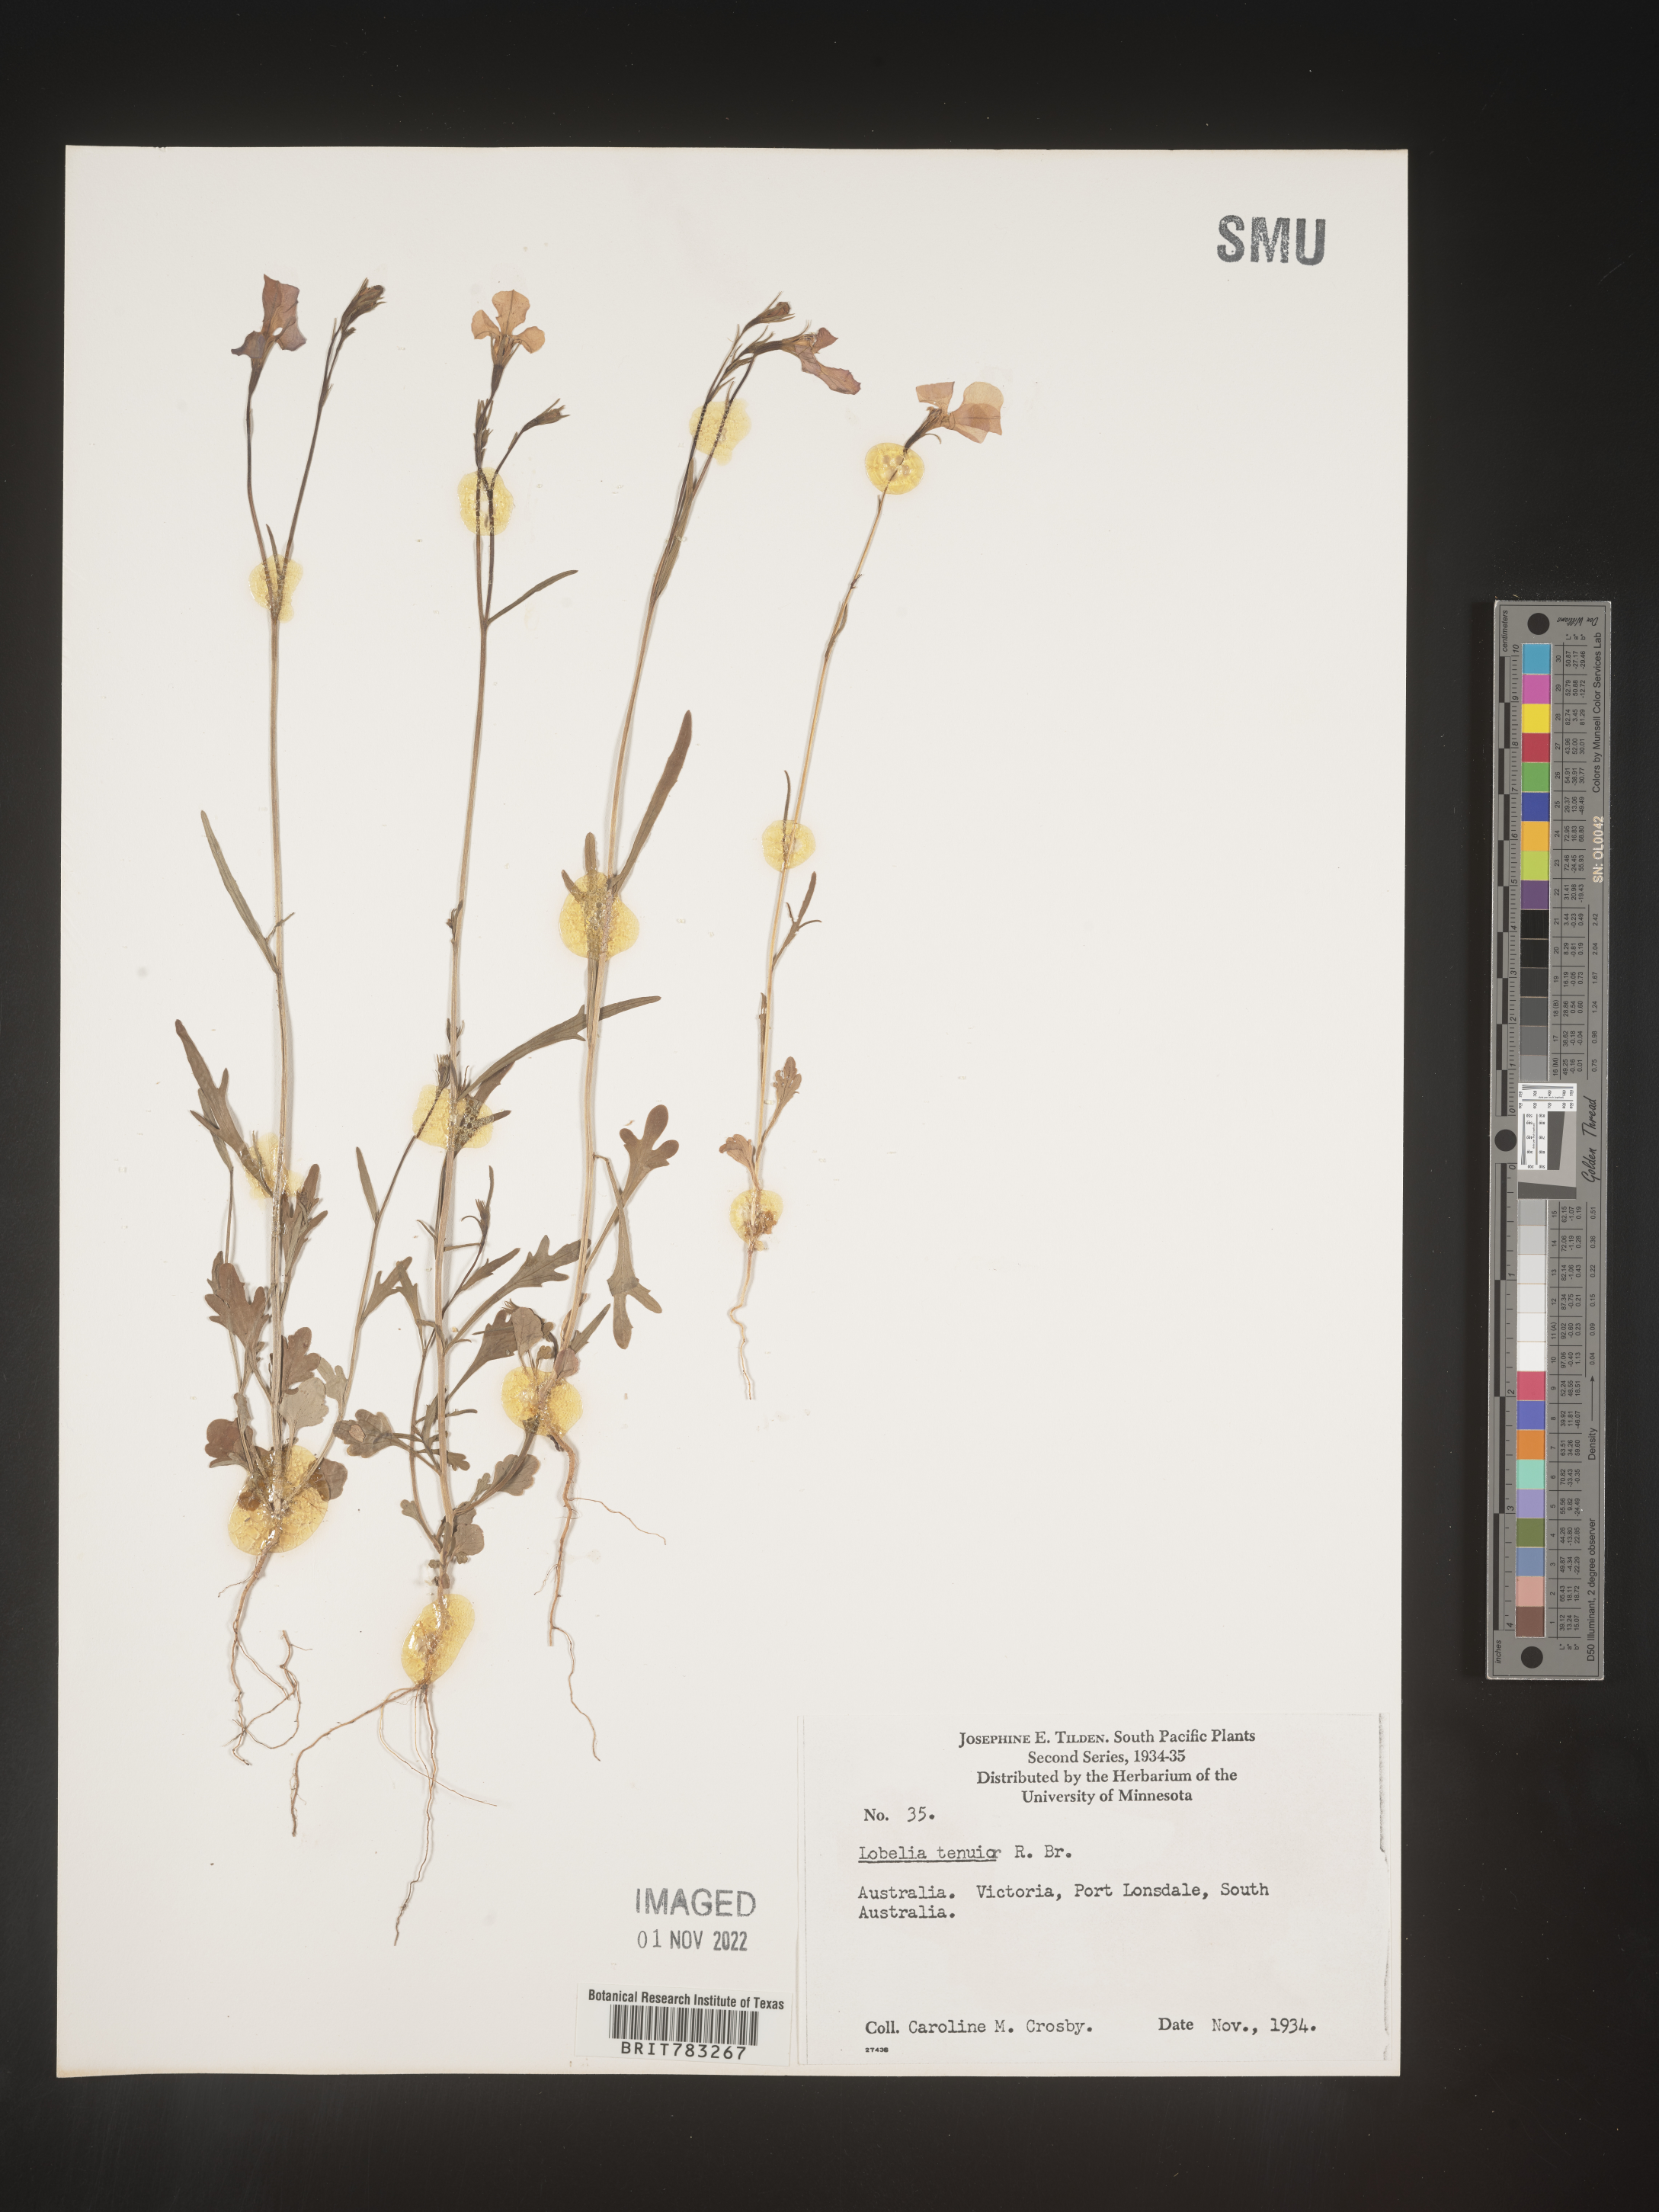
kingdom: Plantae
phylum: Tracheophyta
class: Magnoliopsida
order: Asterales
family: Campanulaceae
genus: Lobelia
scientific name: Lobelia
